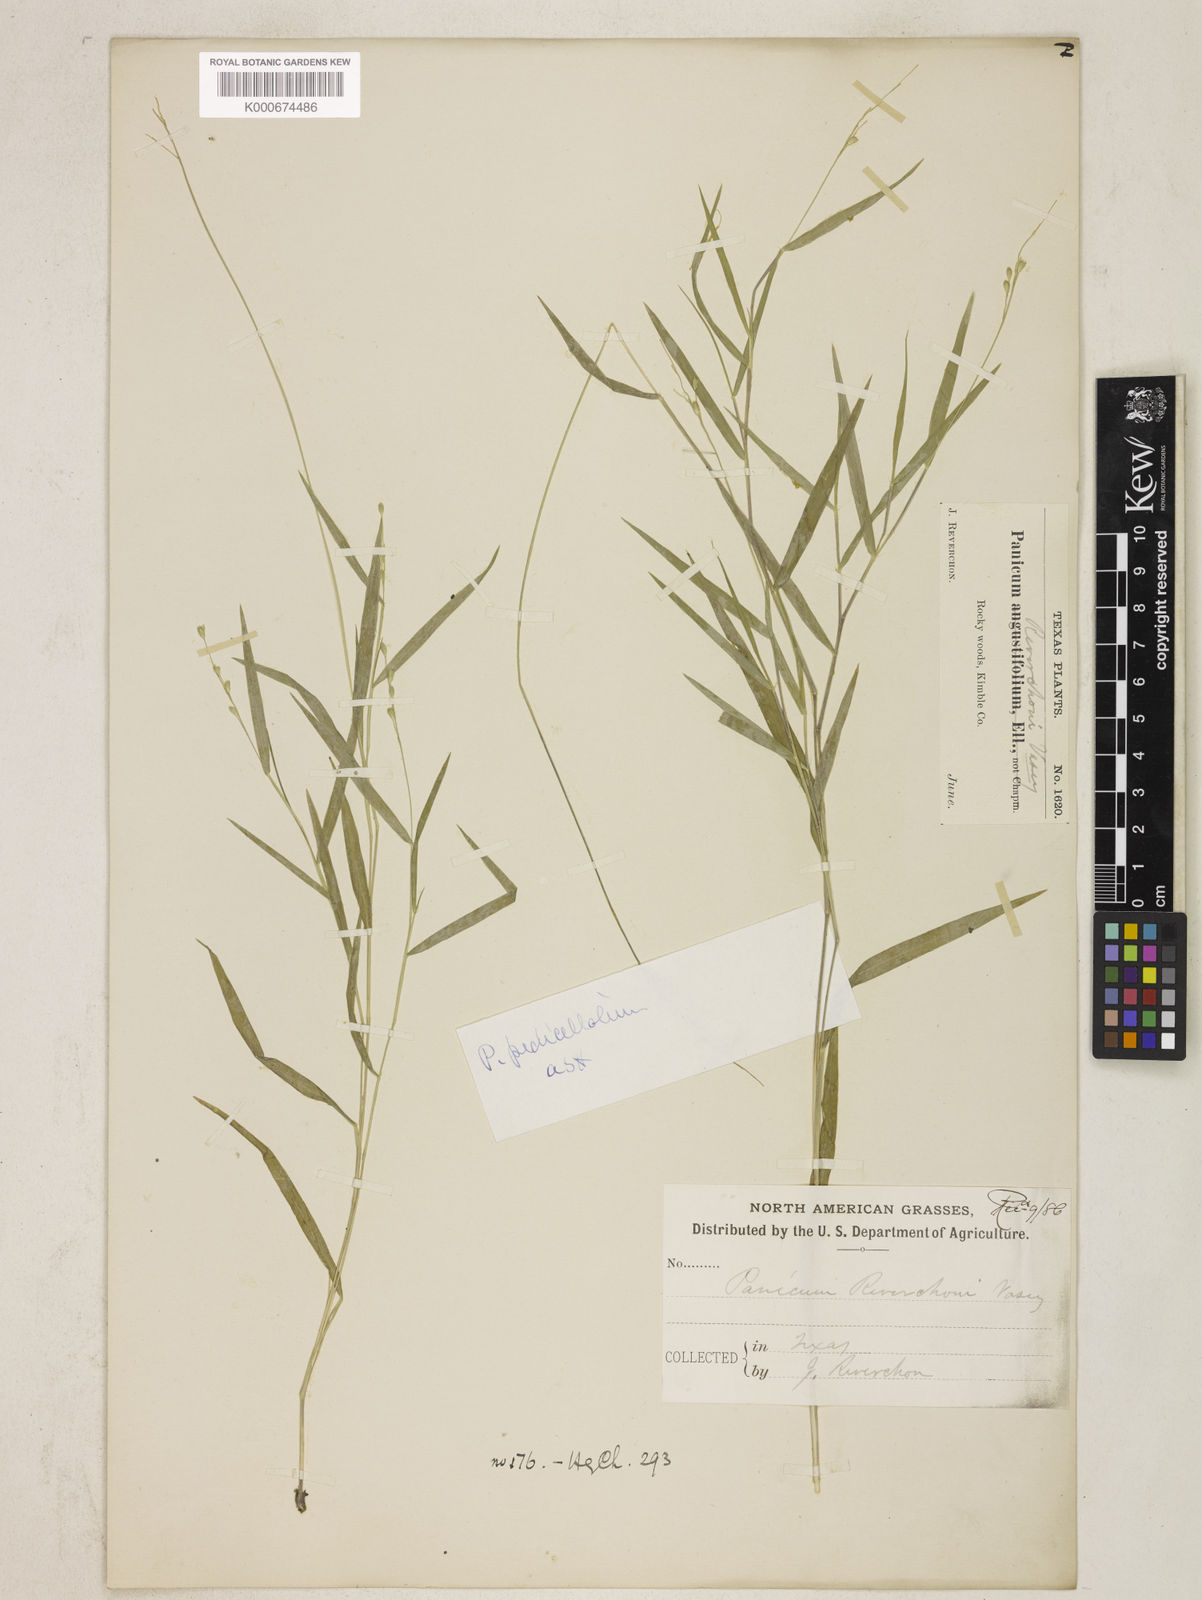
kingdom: Plantae
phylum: Tracheophyta
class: Liliopsida
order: Poales
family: Poaceae
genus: Dichanthelium
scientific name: Dichanthelium transiens
